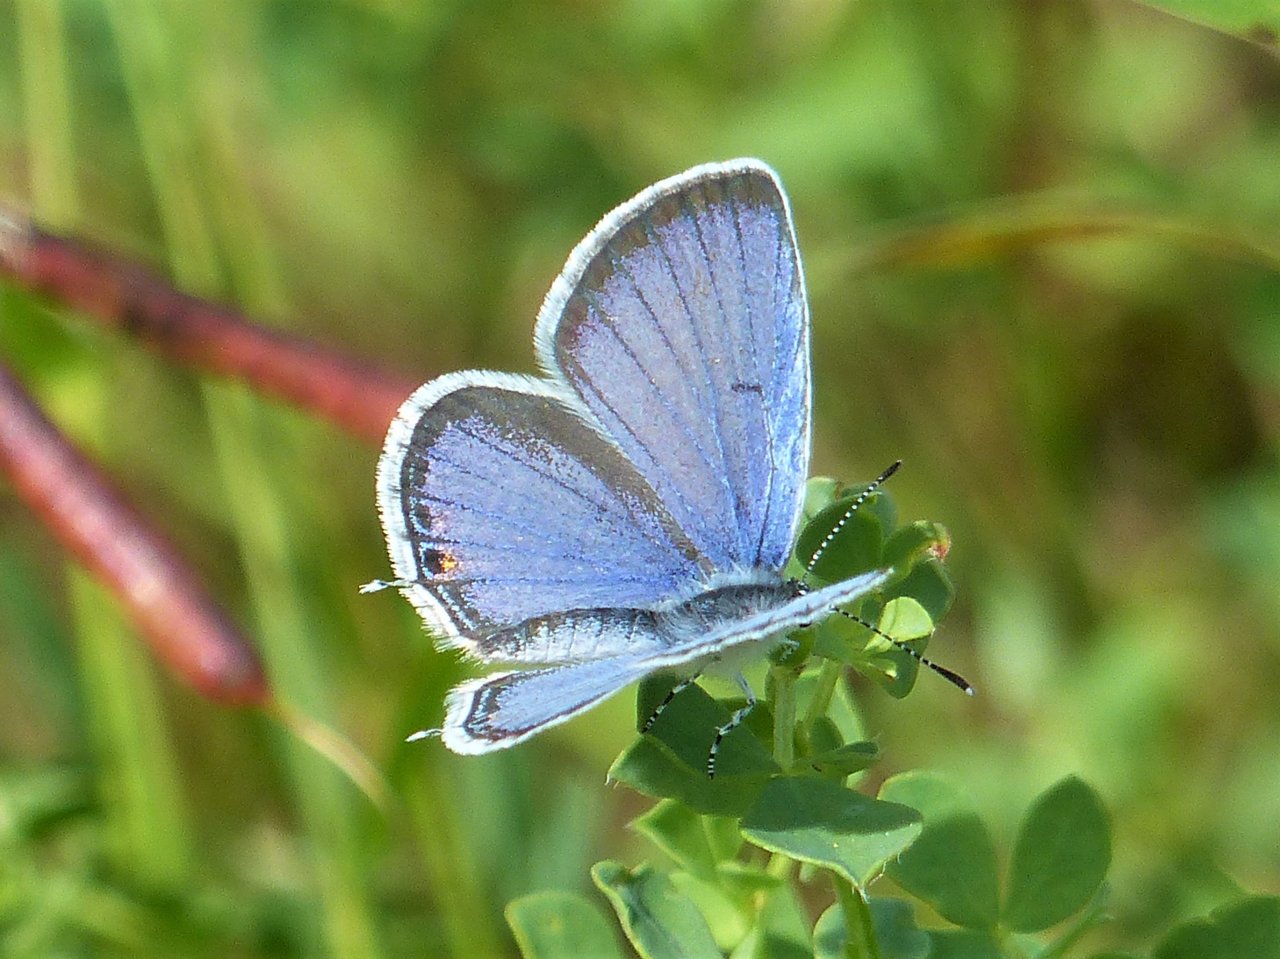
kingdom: Animalia
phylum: Arthropoda
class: Insecta
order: Lepidoptera
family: Lycaenidae
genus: Elkalyce
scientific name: Elkalyce comyntas
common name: Eastern Tailed-Blue
